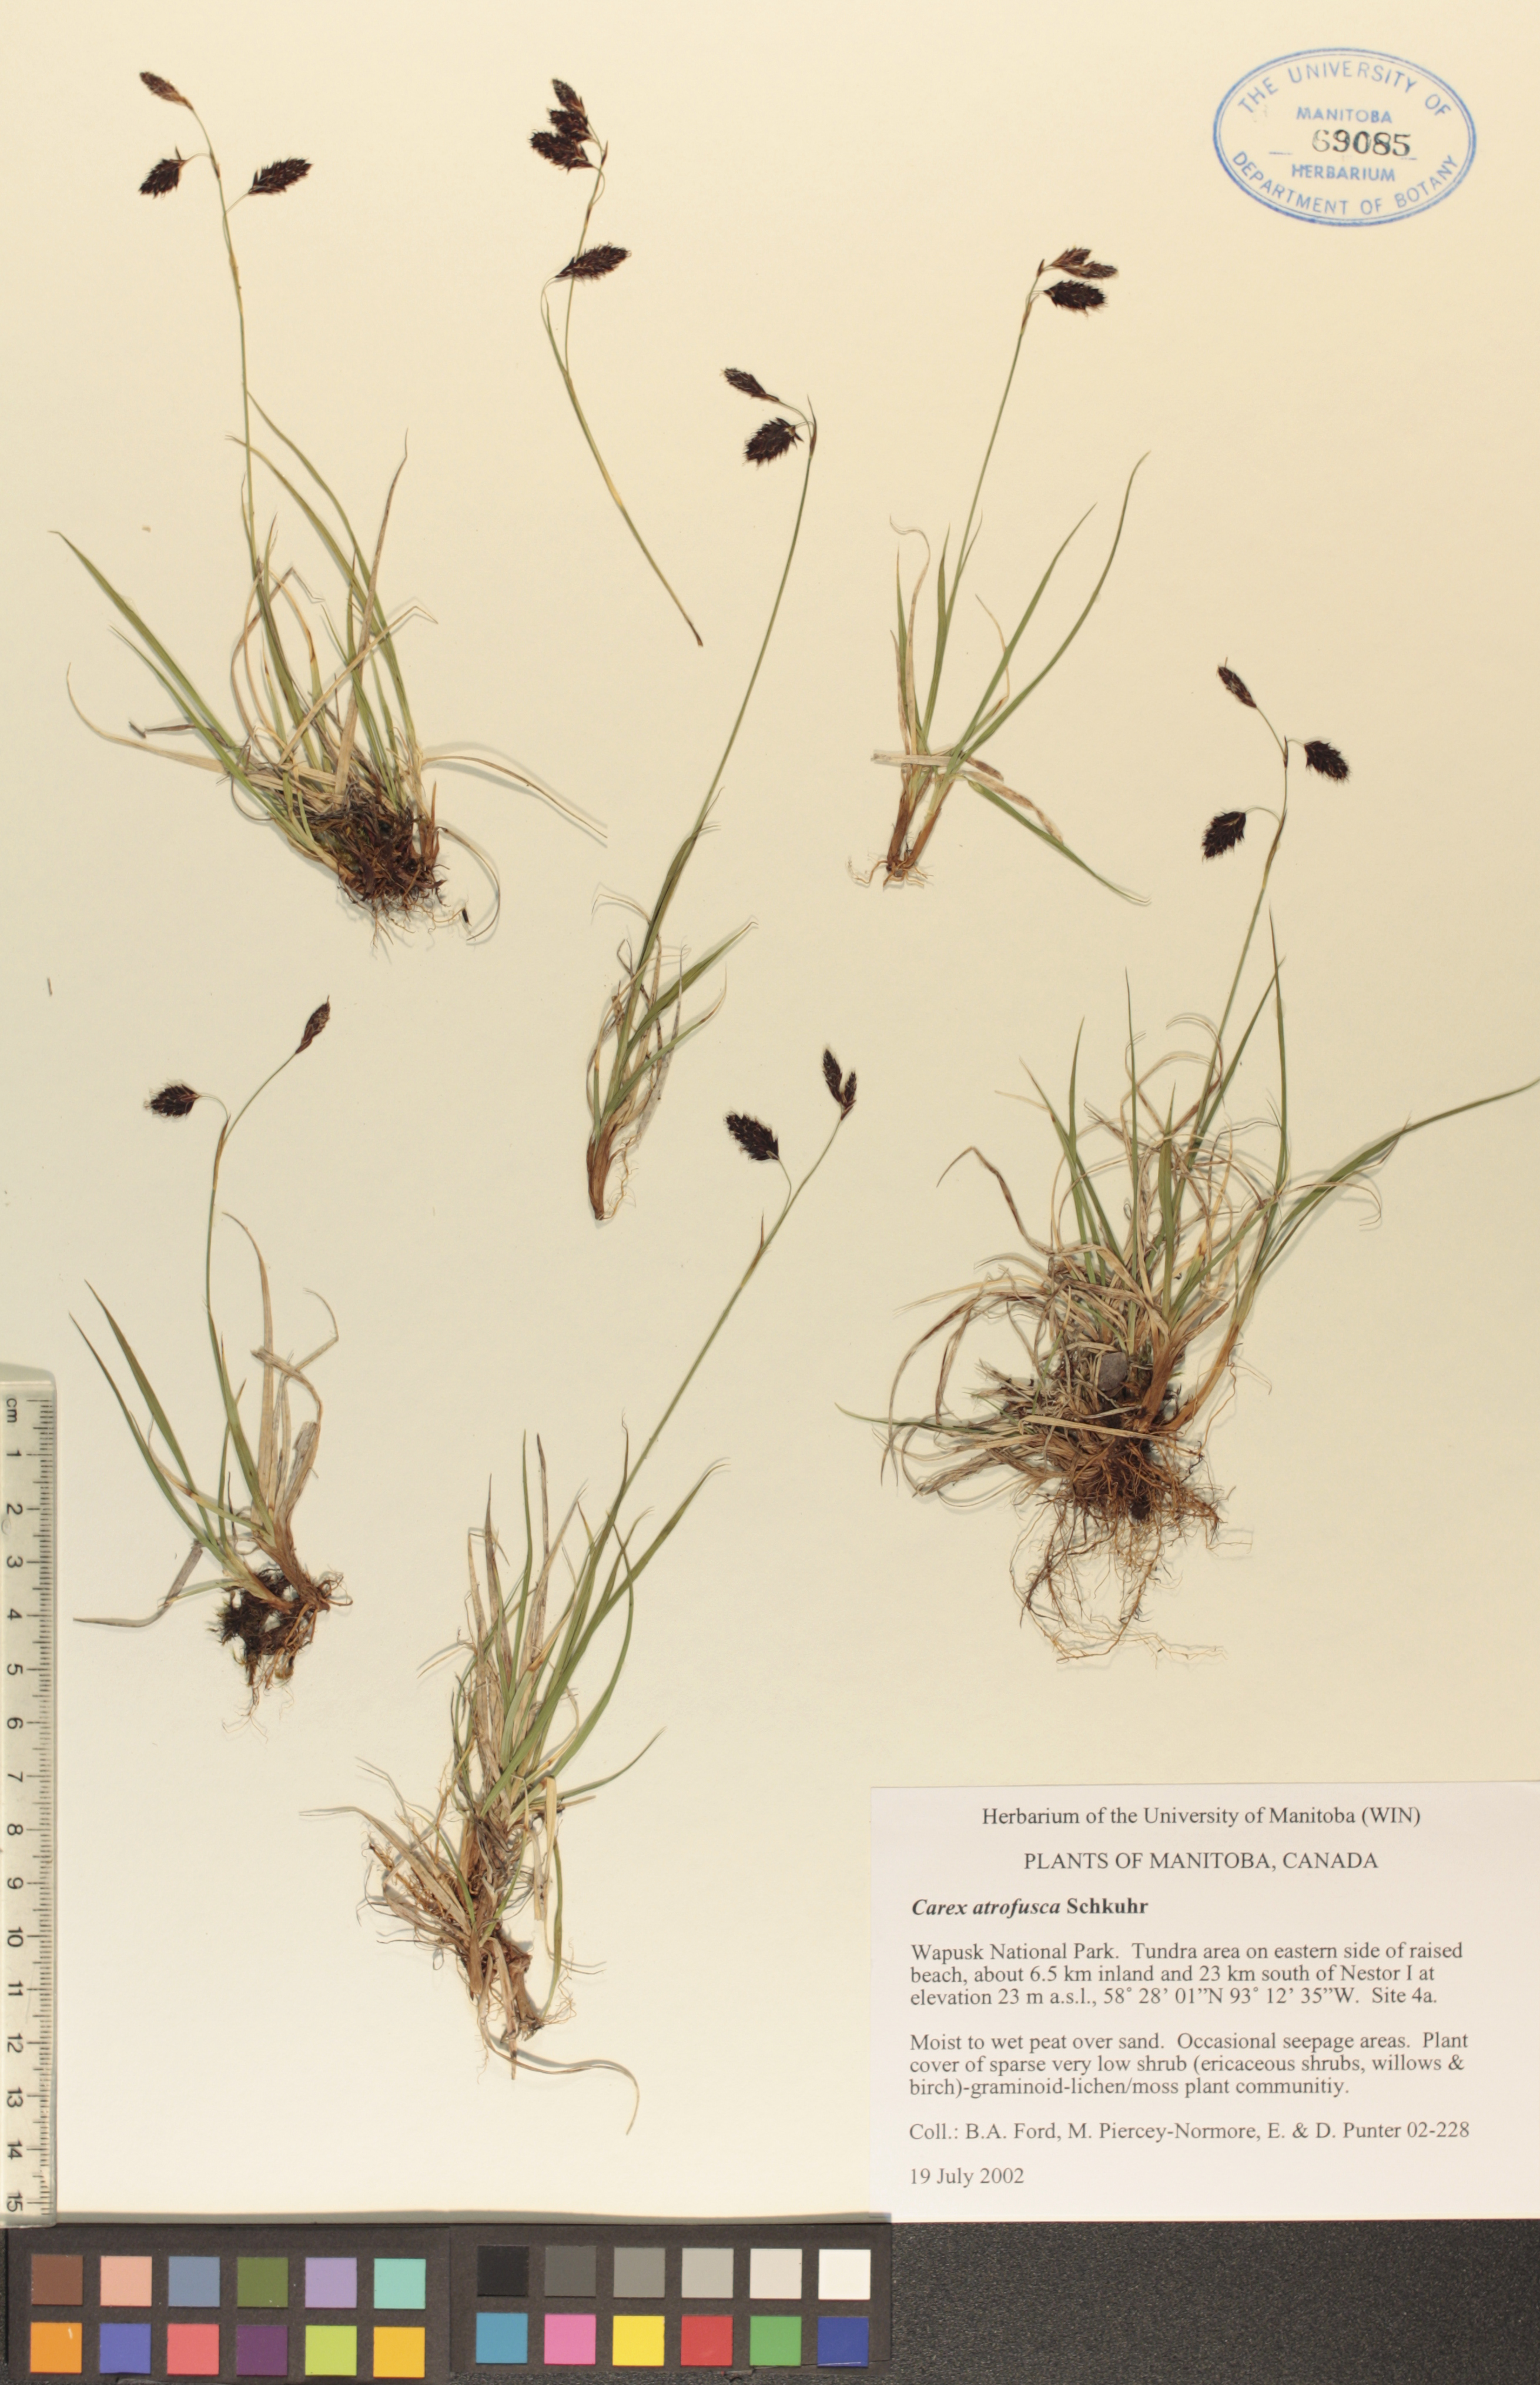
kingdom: Plantae
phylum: Tracheophyta
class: Liliopsida
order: Poales
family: Cyperaceae
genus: Carex
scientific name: Carex pichinchensis
